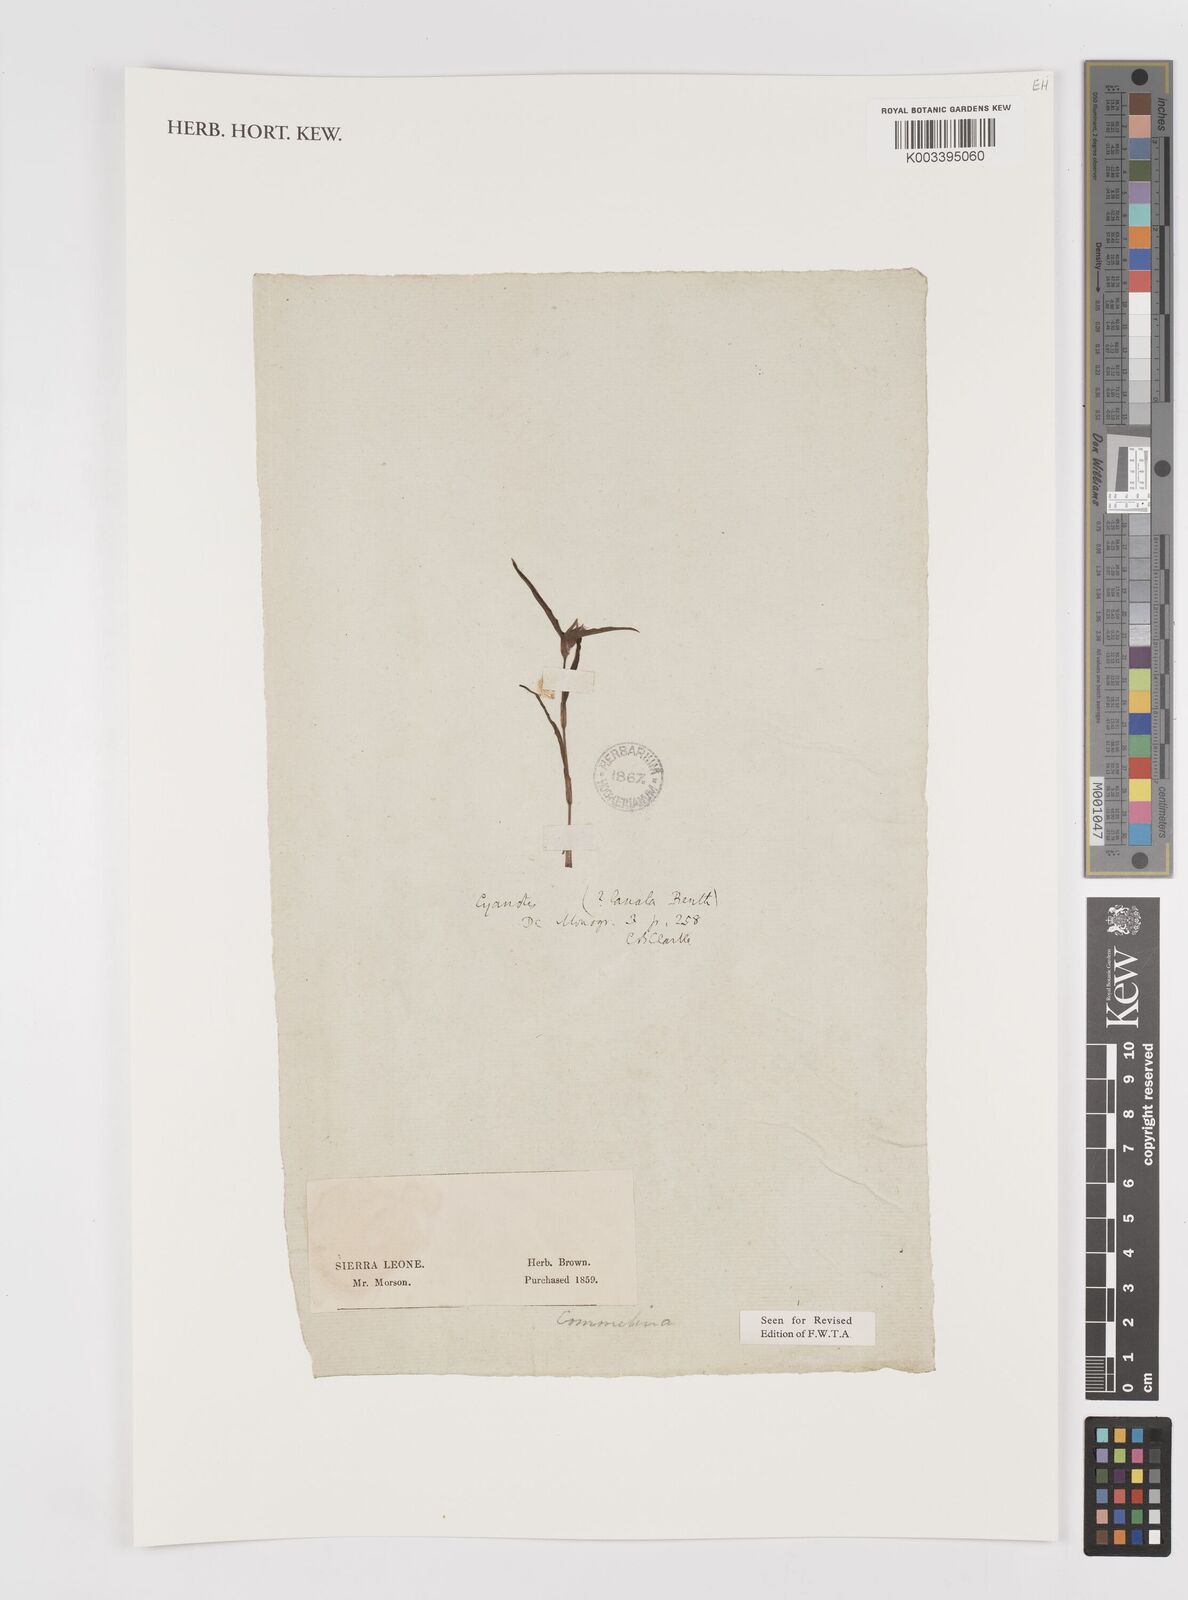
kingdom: Plantae
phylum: Tracheophyta
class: Liliopsida
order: Commelinales
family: Commelinaceae
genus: Cyanotis
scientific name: Cyanotis lanata
